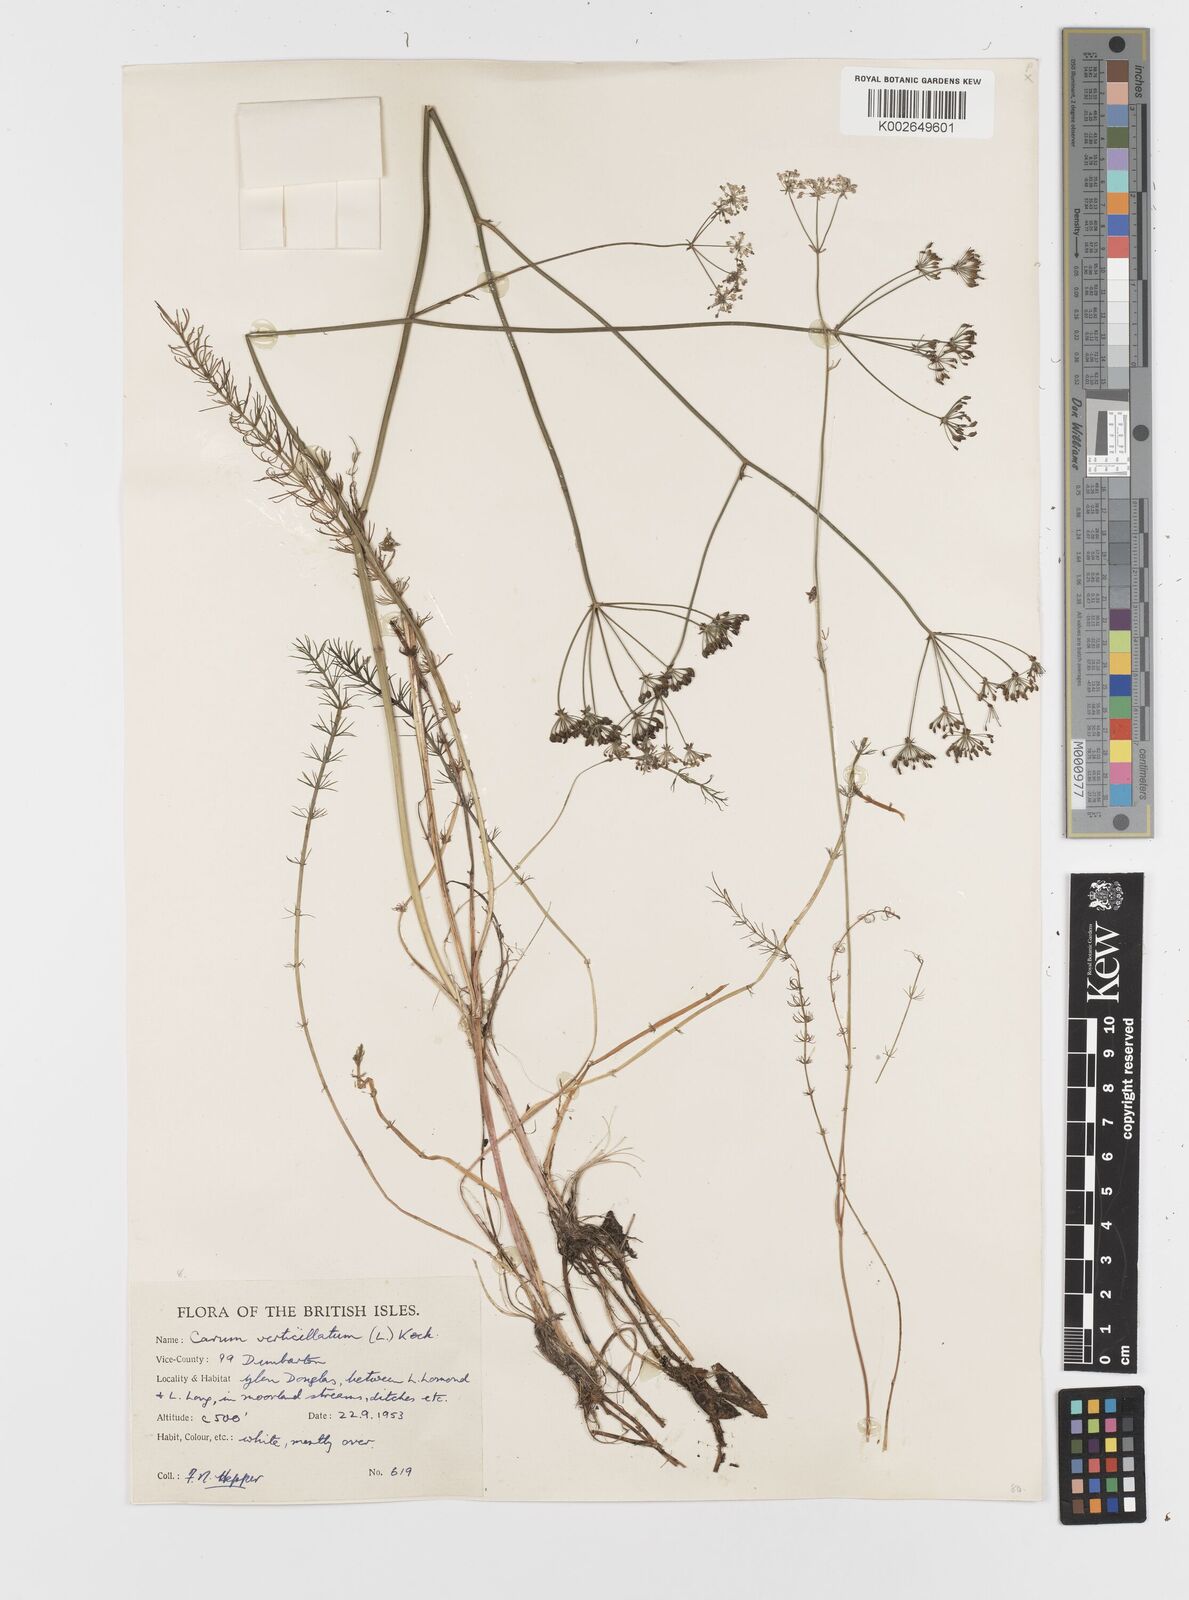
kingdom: Plantae
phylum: Tracheophyta
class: Magnoliopsida
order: Apiales
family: Apiaceae
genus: Trocdaris
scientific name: Trocdaris verticillatum
